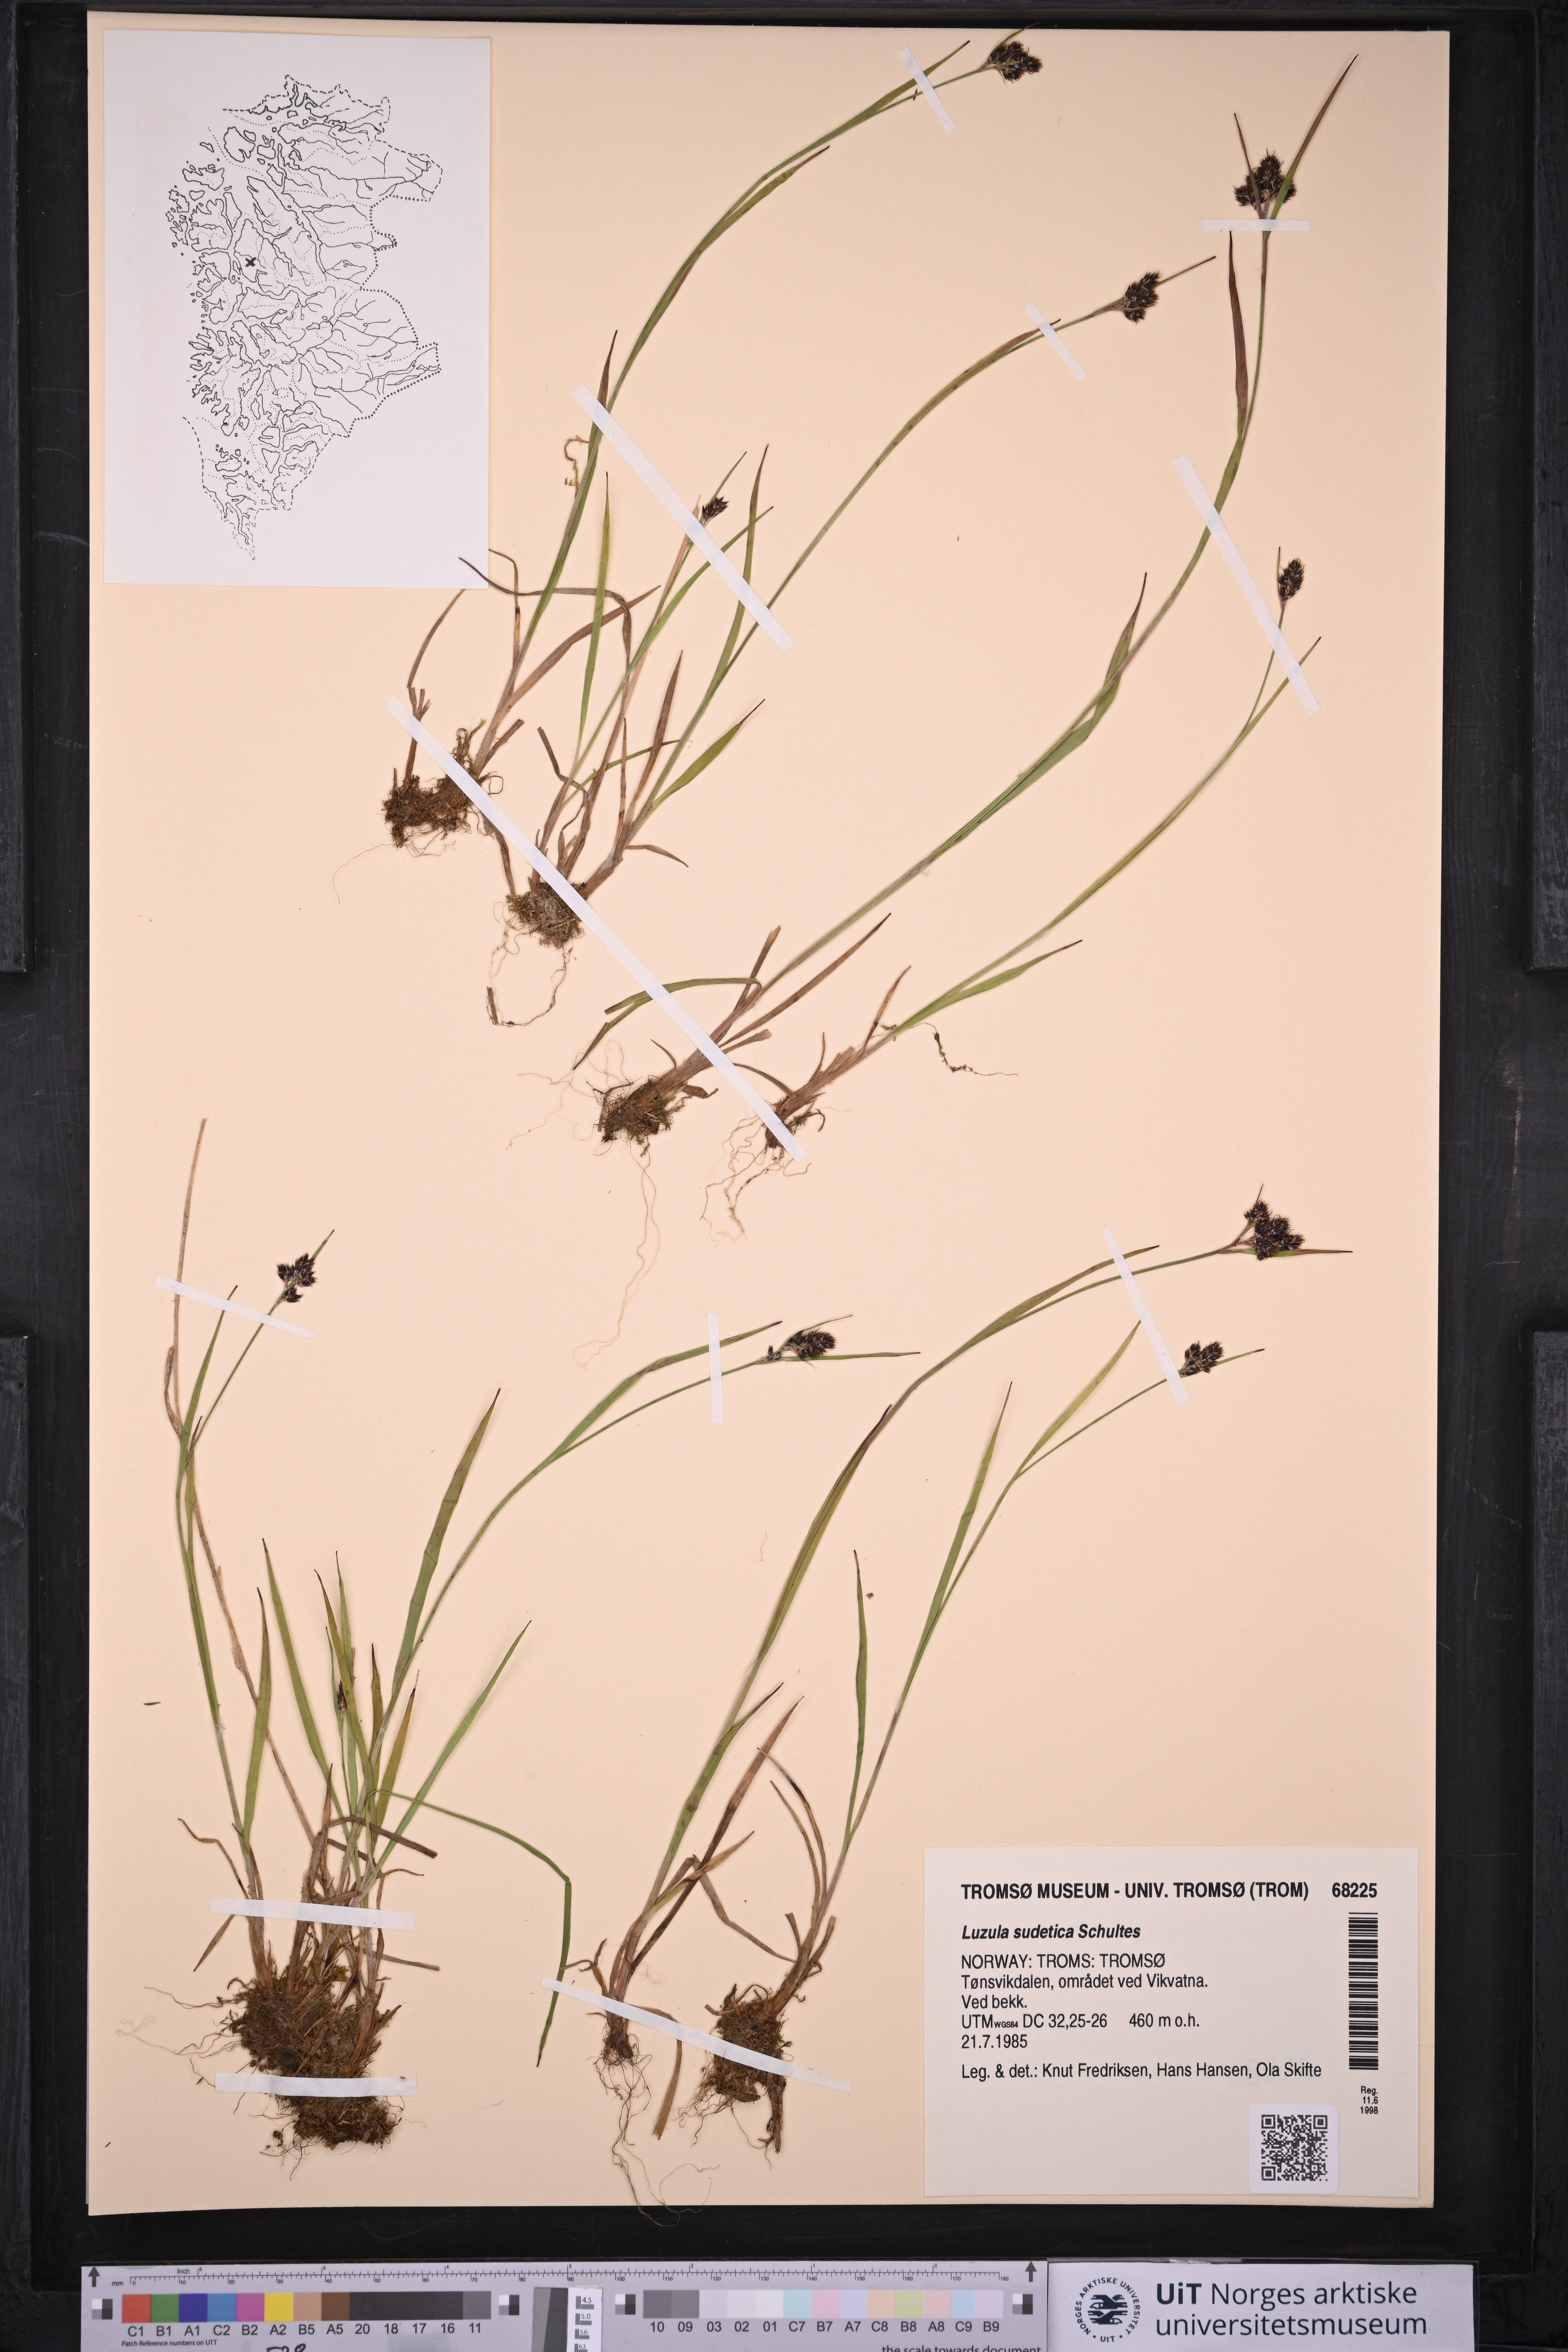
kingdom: Plantae
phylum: Tracheophyta
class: Liliopsida
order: Poales
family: Juncaceae
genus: Luzula
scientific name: Luzula sudetica
